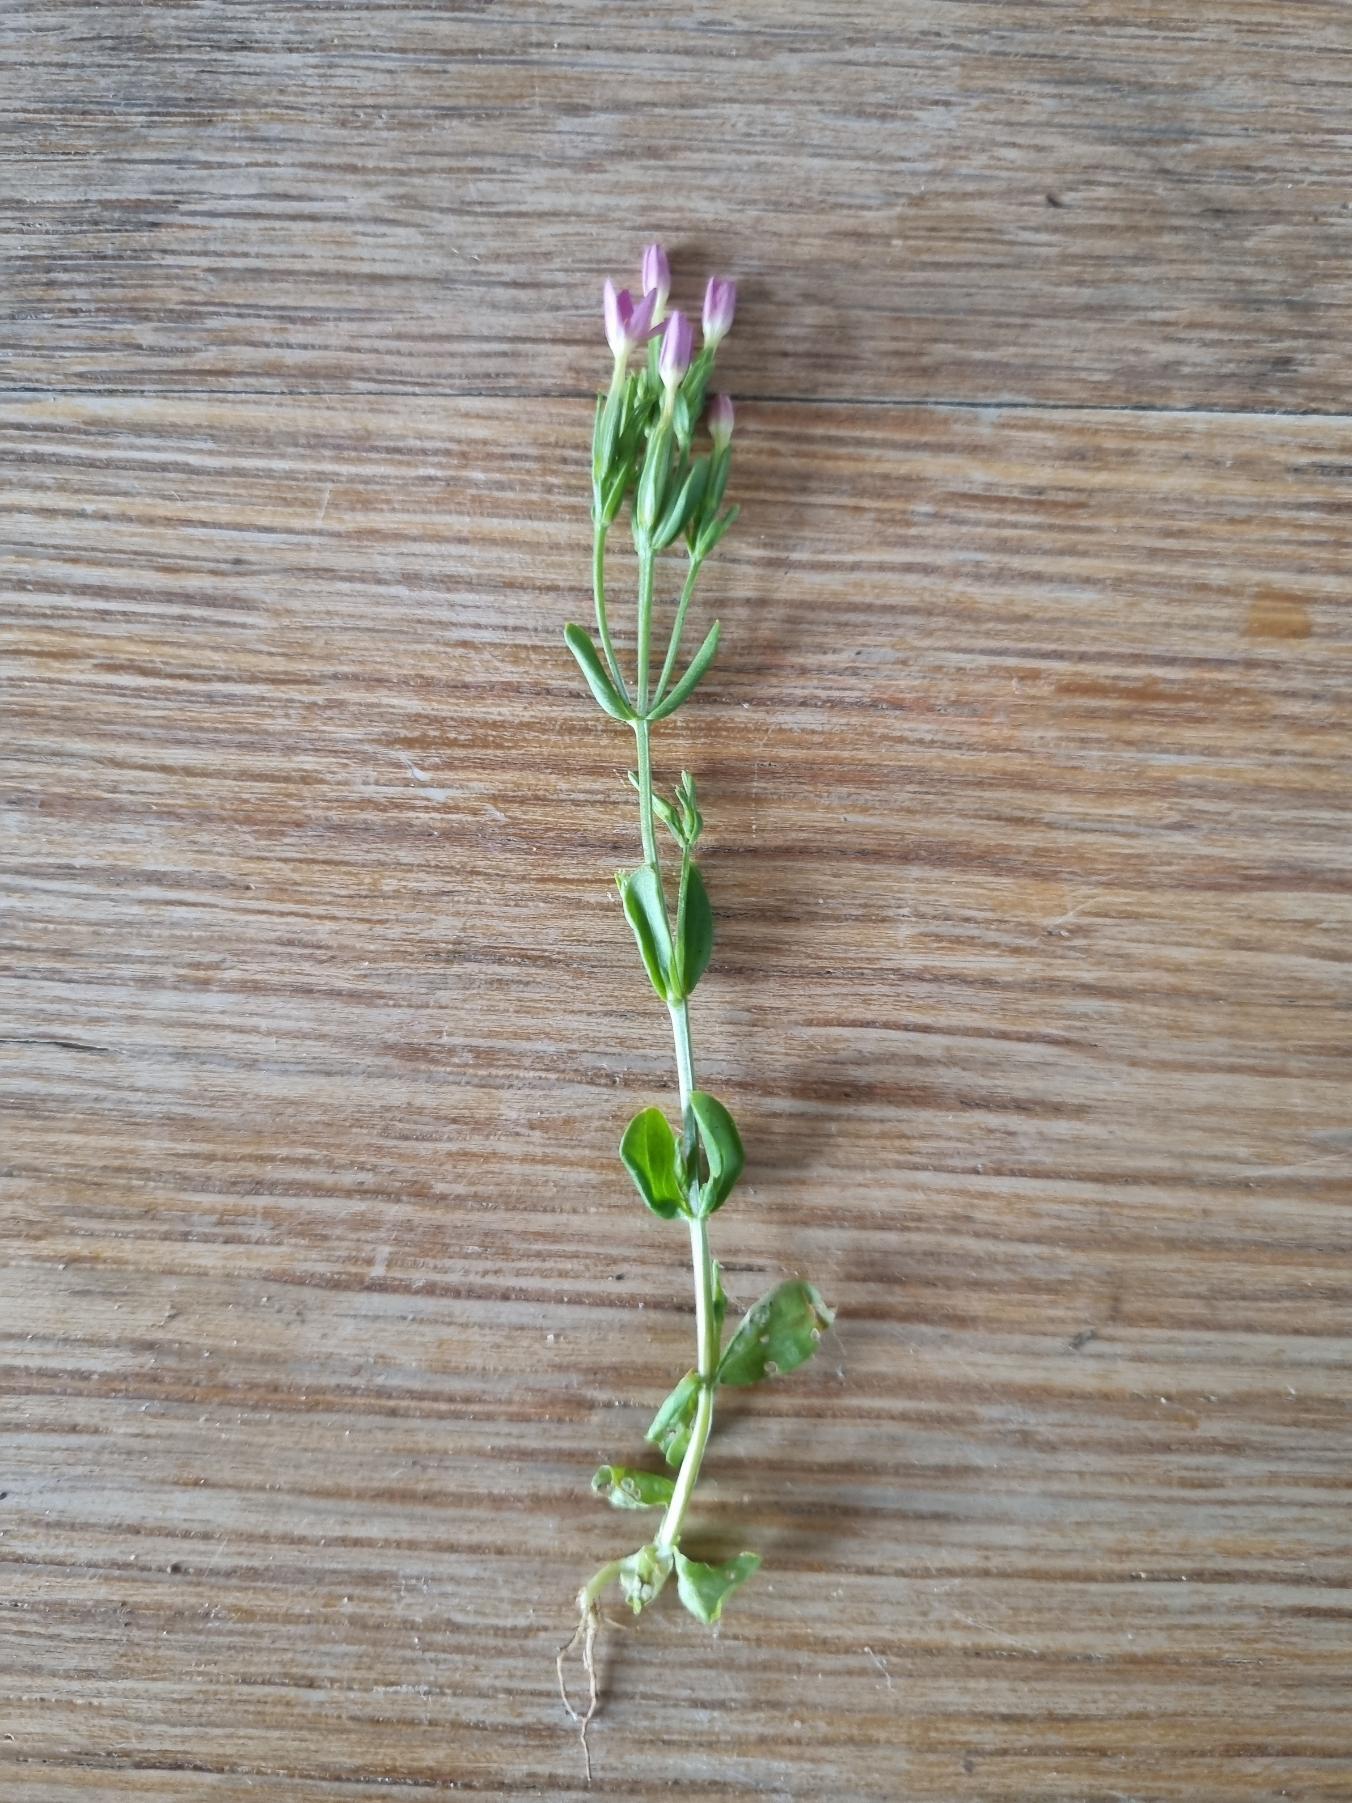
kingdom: Plantae
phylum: Tracheophyta
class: Magnoliopsida
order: Gentianales
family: Gentianaceae
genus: Centaurium
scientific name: Centaurium erythraea
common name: Mark-tusindgylden
